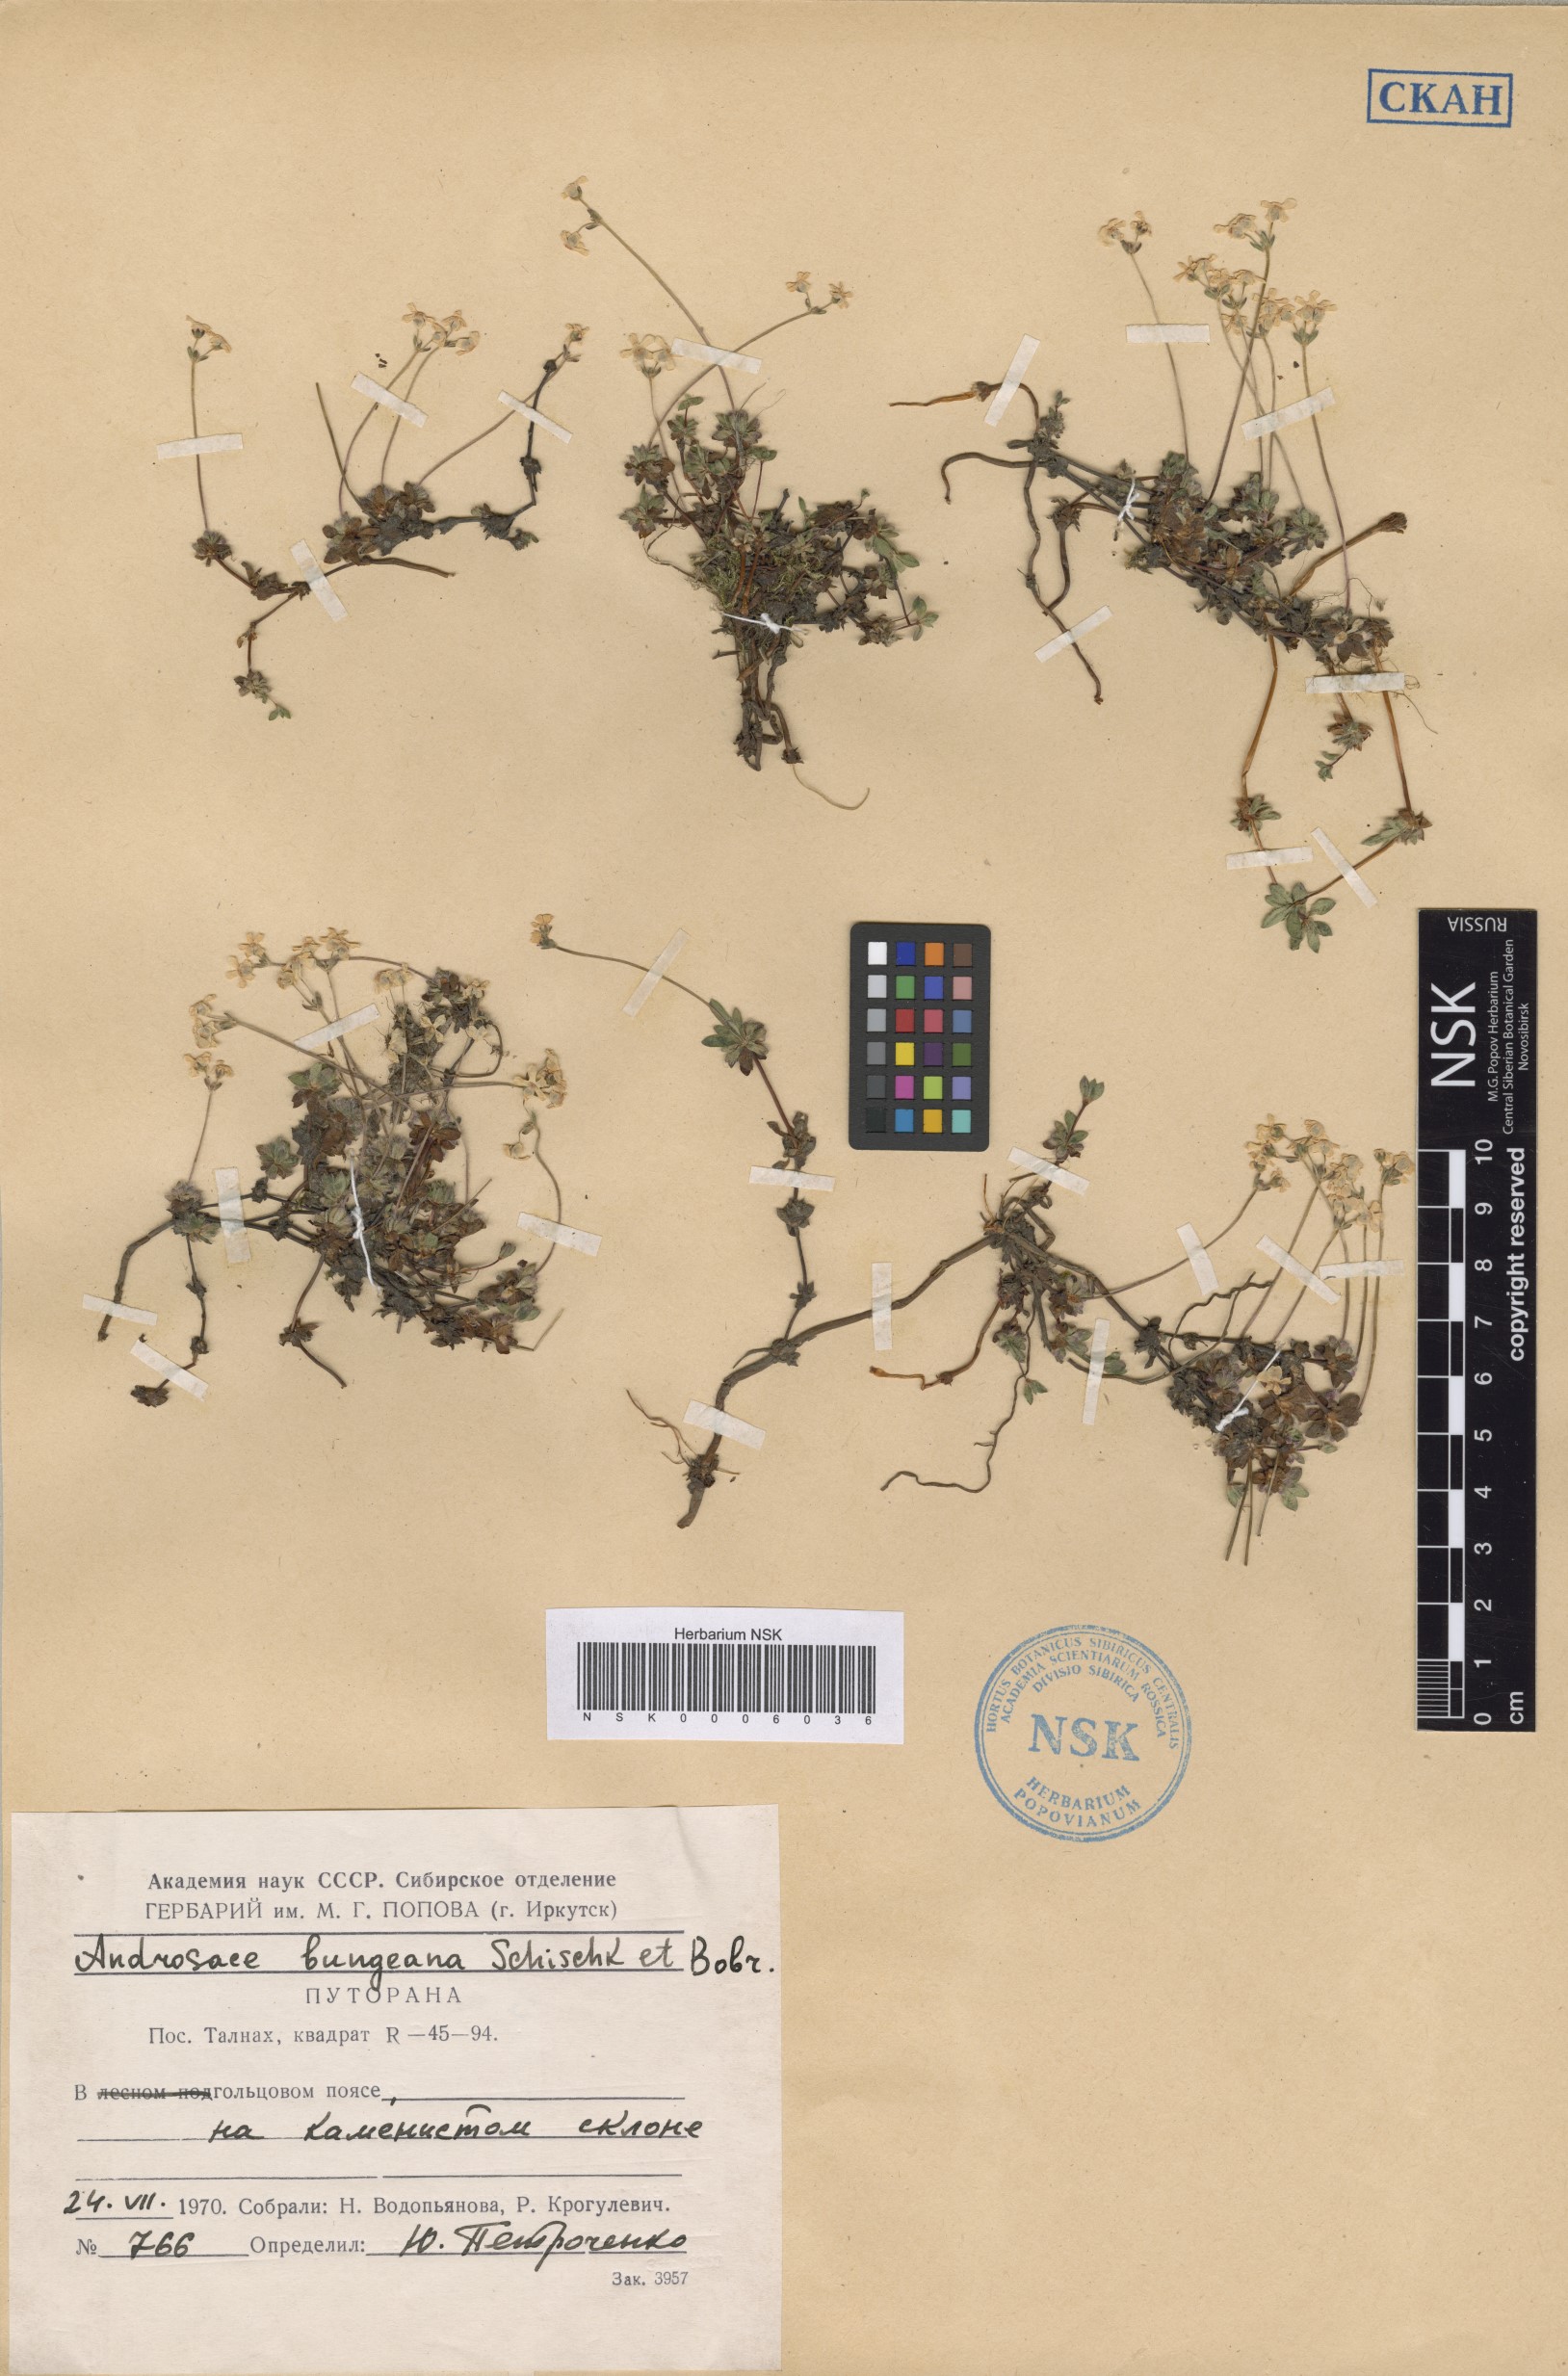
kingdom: Plantae
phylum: Tracheophyta
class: Magnoliopsida
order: Ericales
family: Primulaceae
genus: Androsace
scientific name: Androsace bungeana
